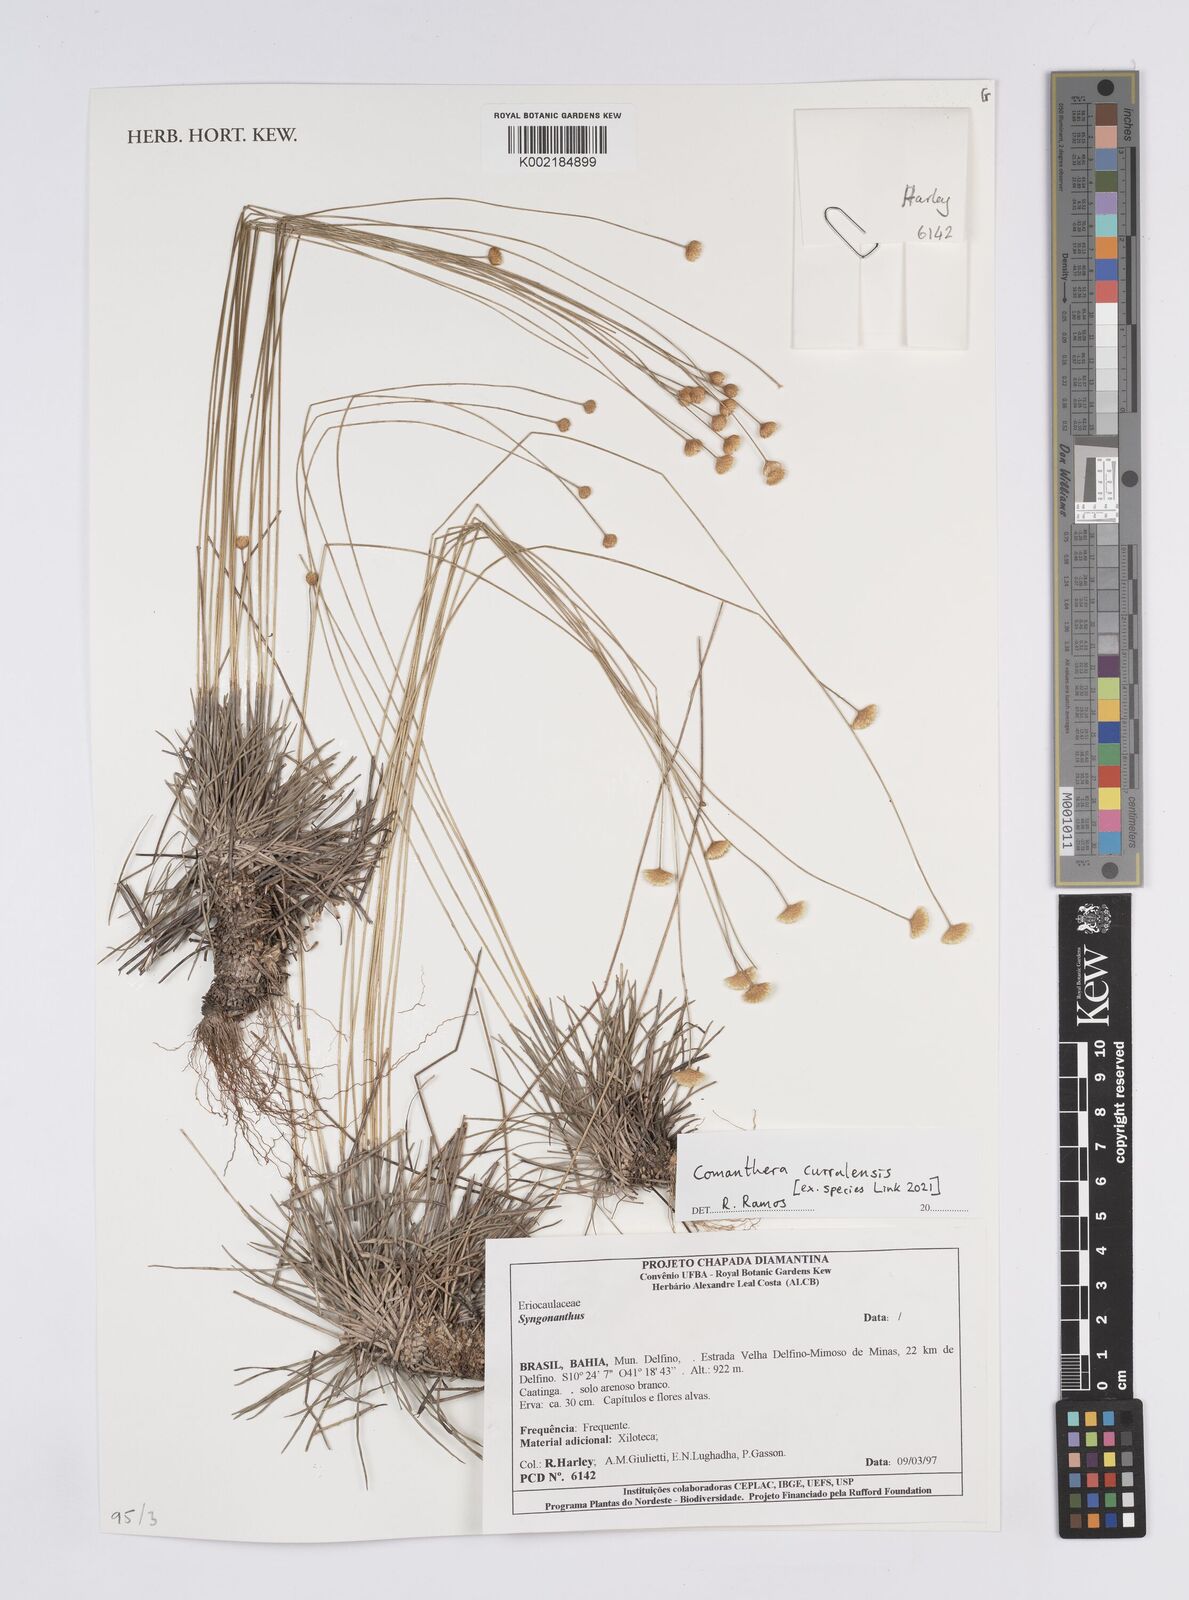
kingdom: Plantae
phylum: Tracheophyta
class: Liliopsida
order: Poales
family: Eriocaulaceae
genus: Comanthera
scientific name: Comanthera curralensis
